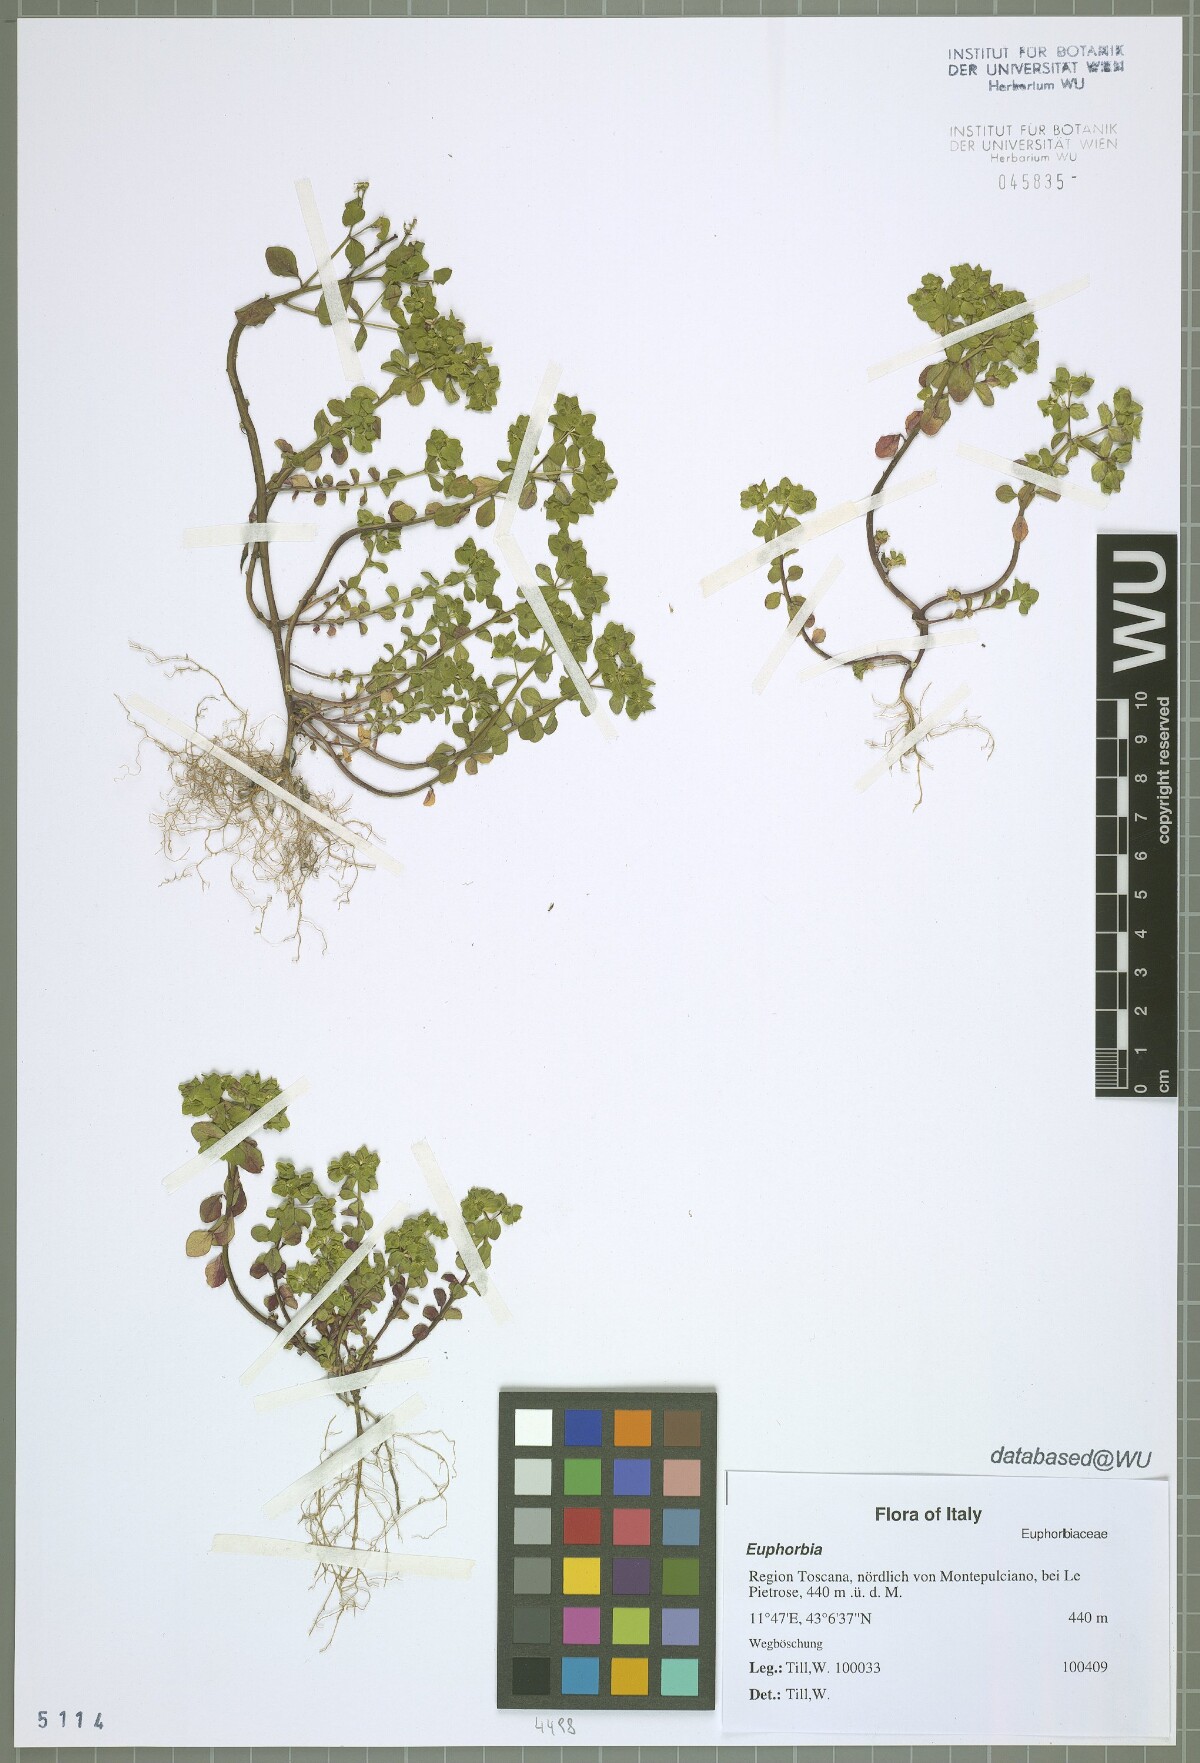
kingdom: Plantae
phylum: Tracheophyta
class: Magnoliopsida
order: Malpighiales
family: Euphorbiaceae
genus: Euphorbia
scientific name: Euphorbia
